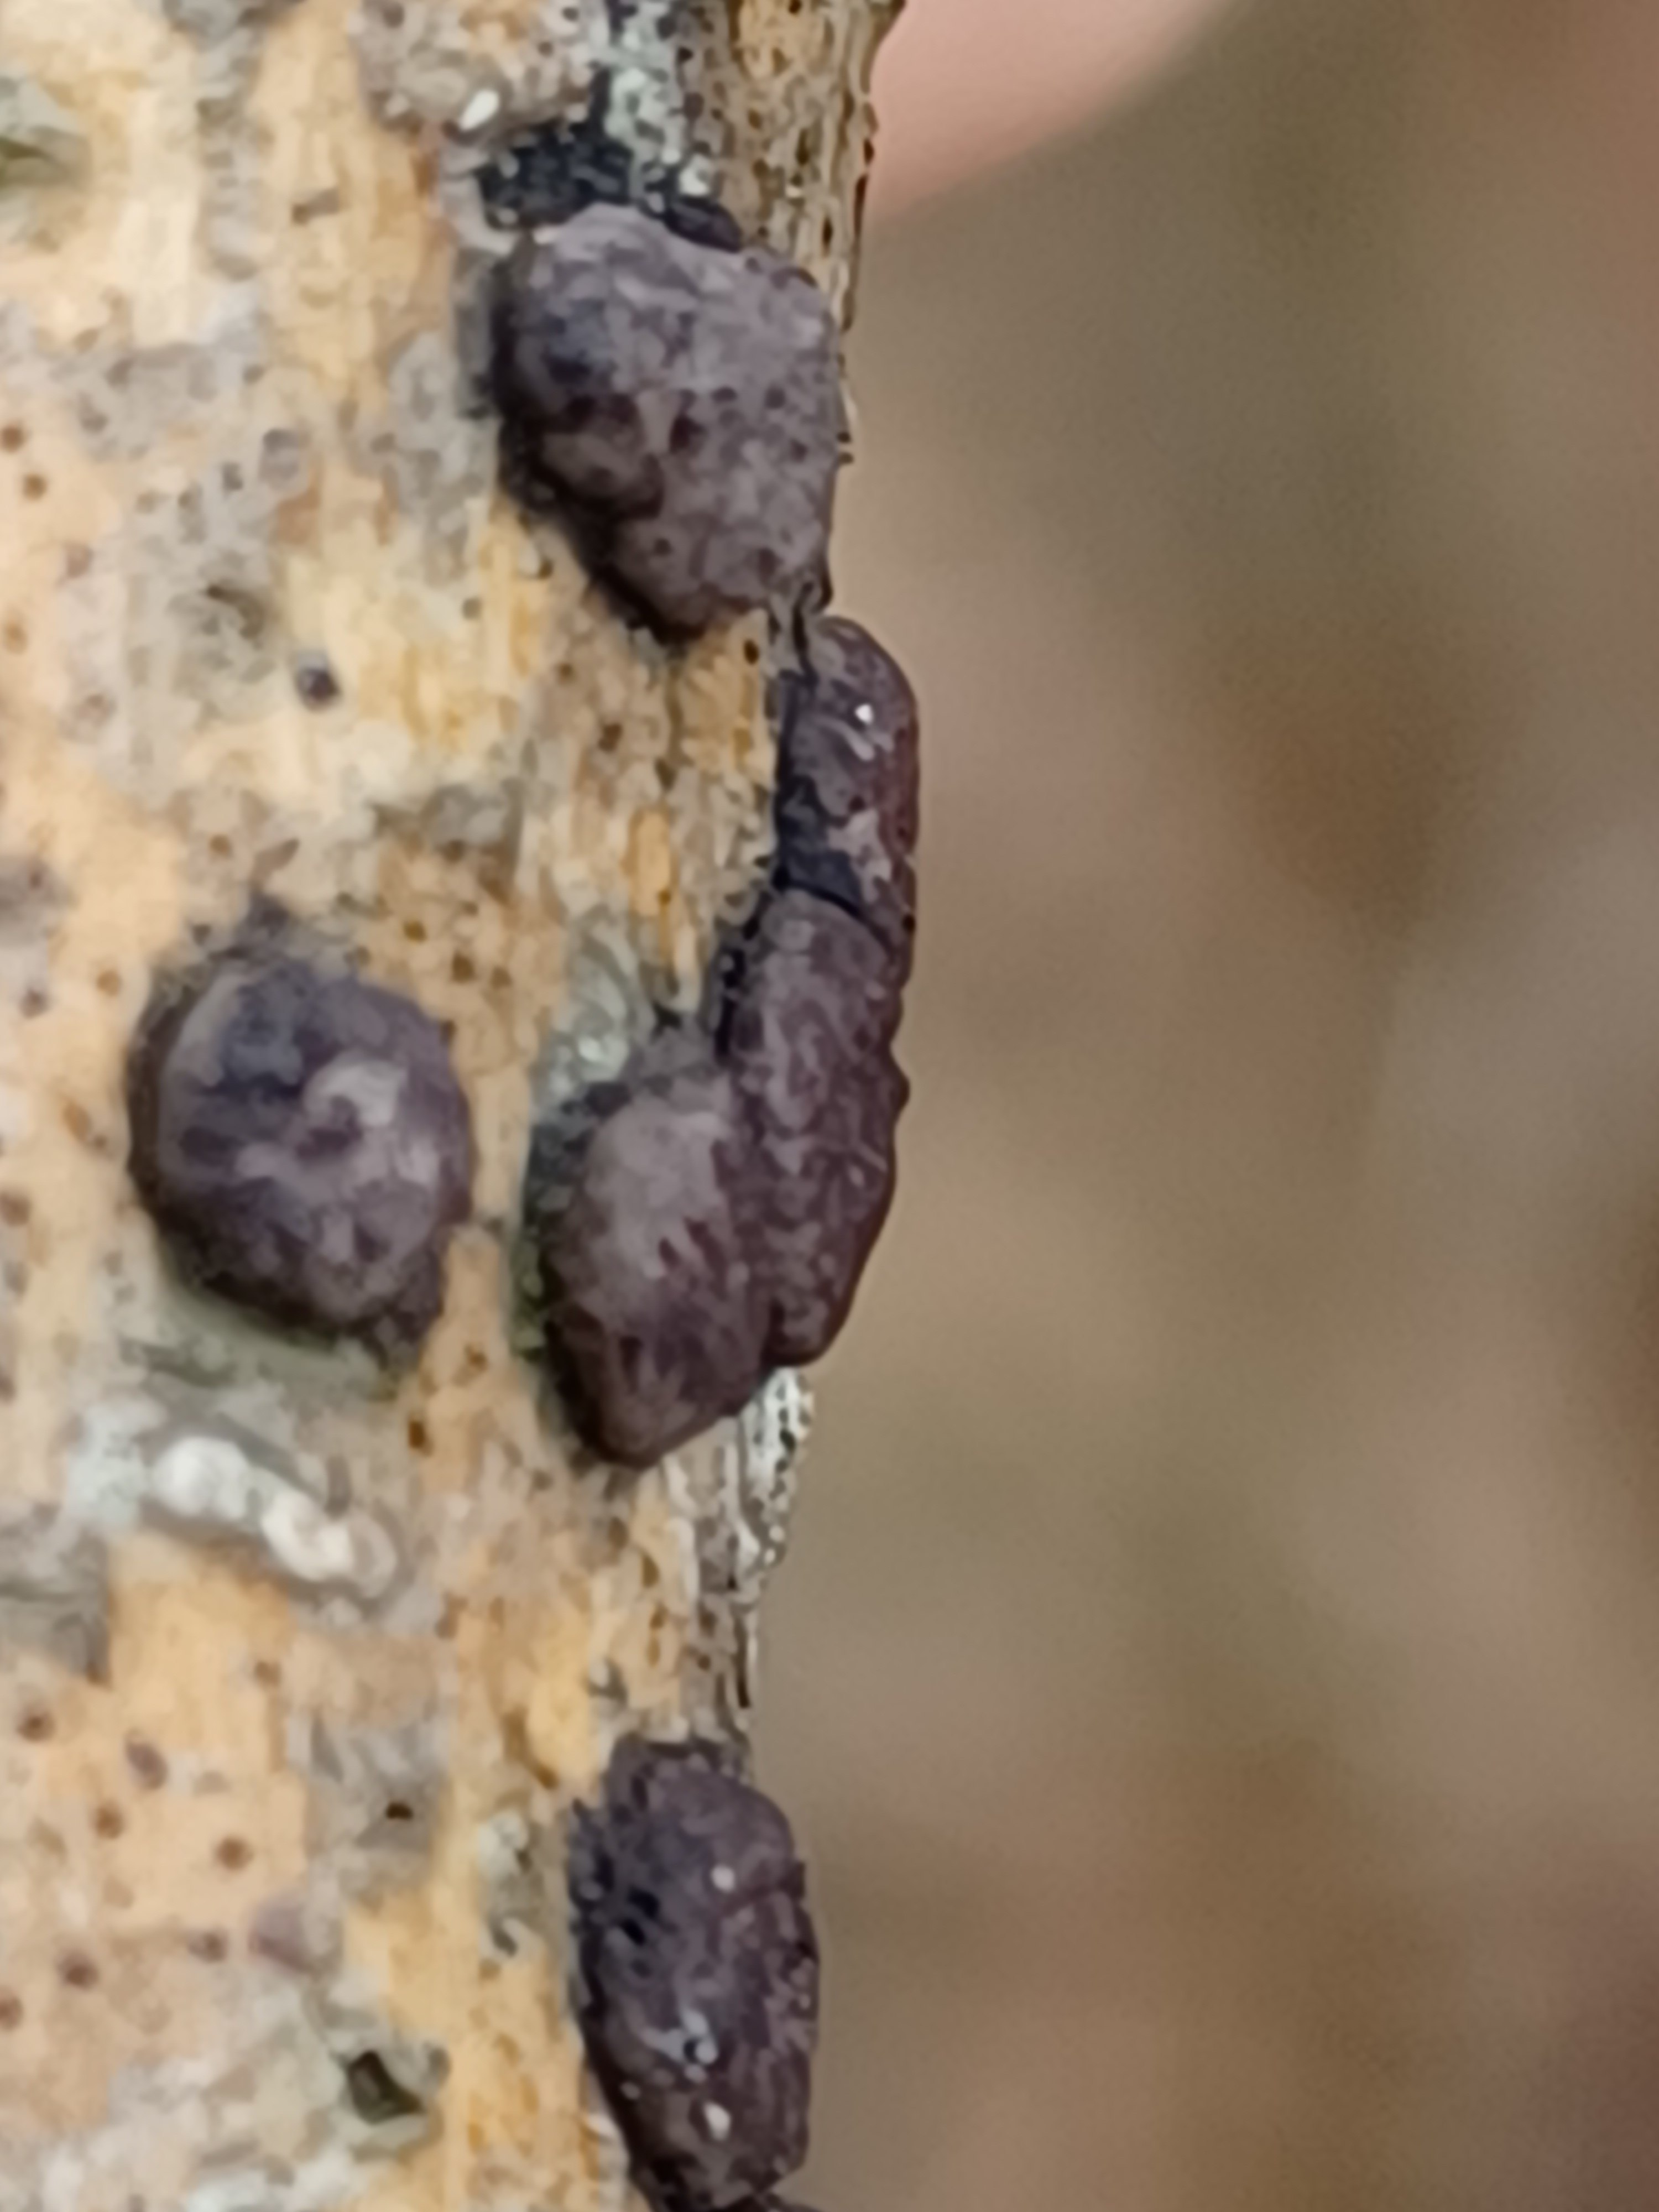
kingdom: Fungi
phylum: Ascomycota
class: Sordariomycetes
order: Xylariales
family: Hypoxylaceae
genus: Hypoxylon
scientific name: Hypoxylon
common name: kulbær
